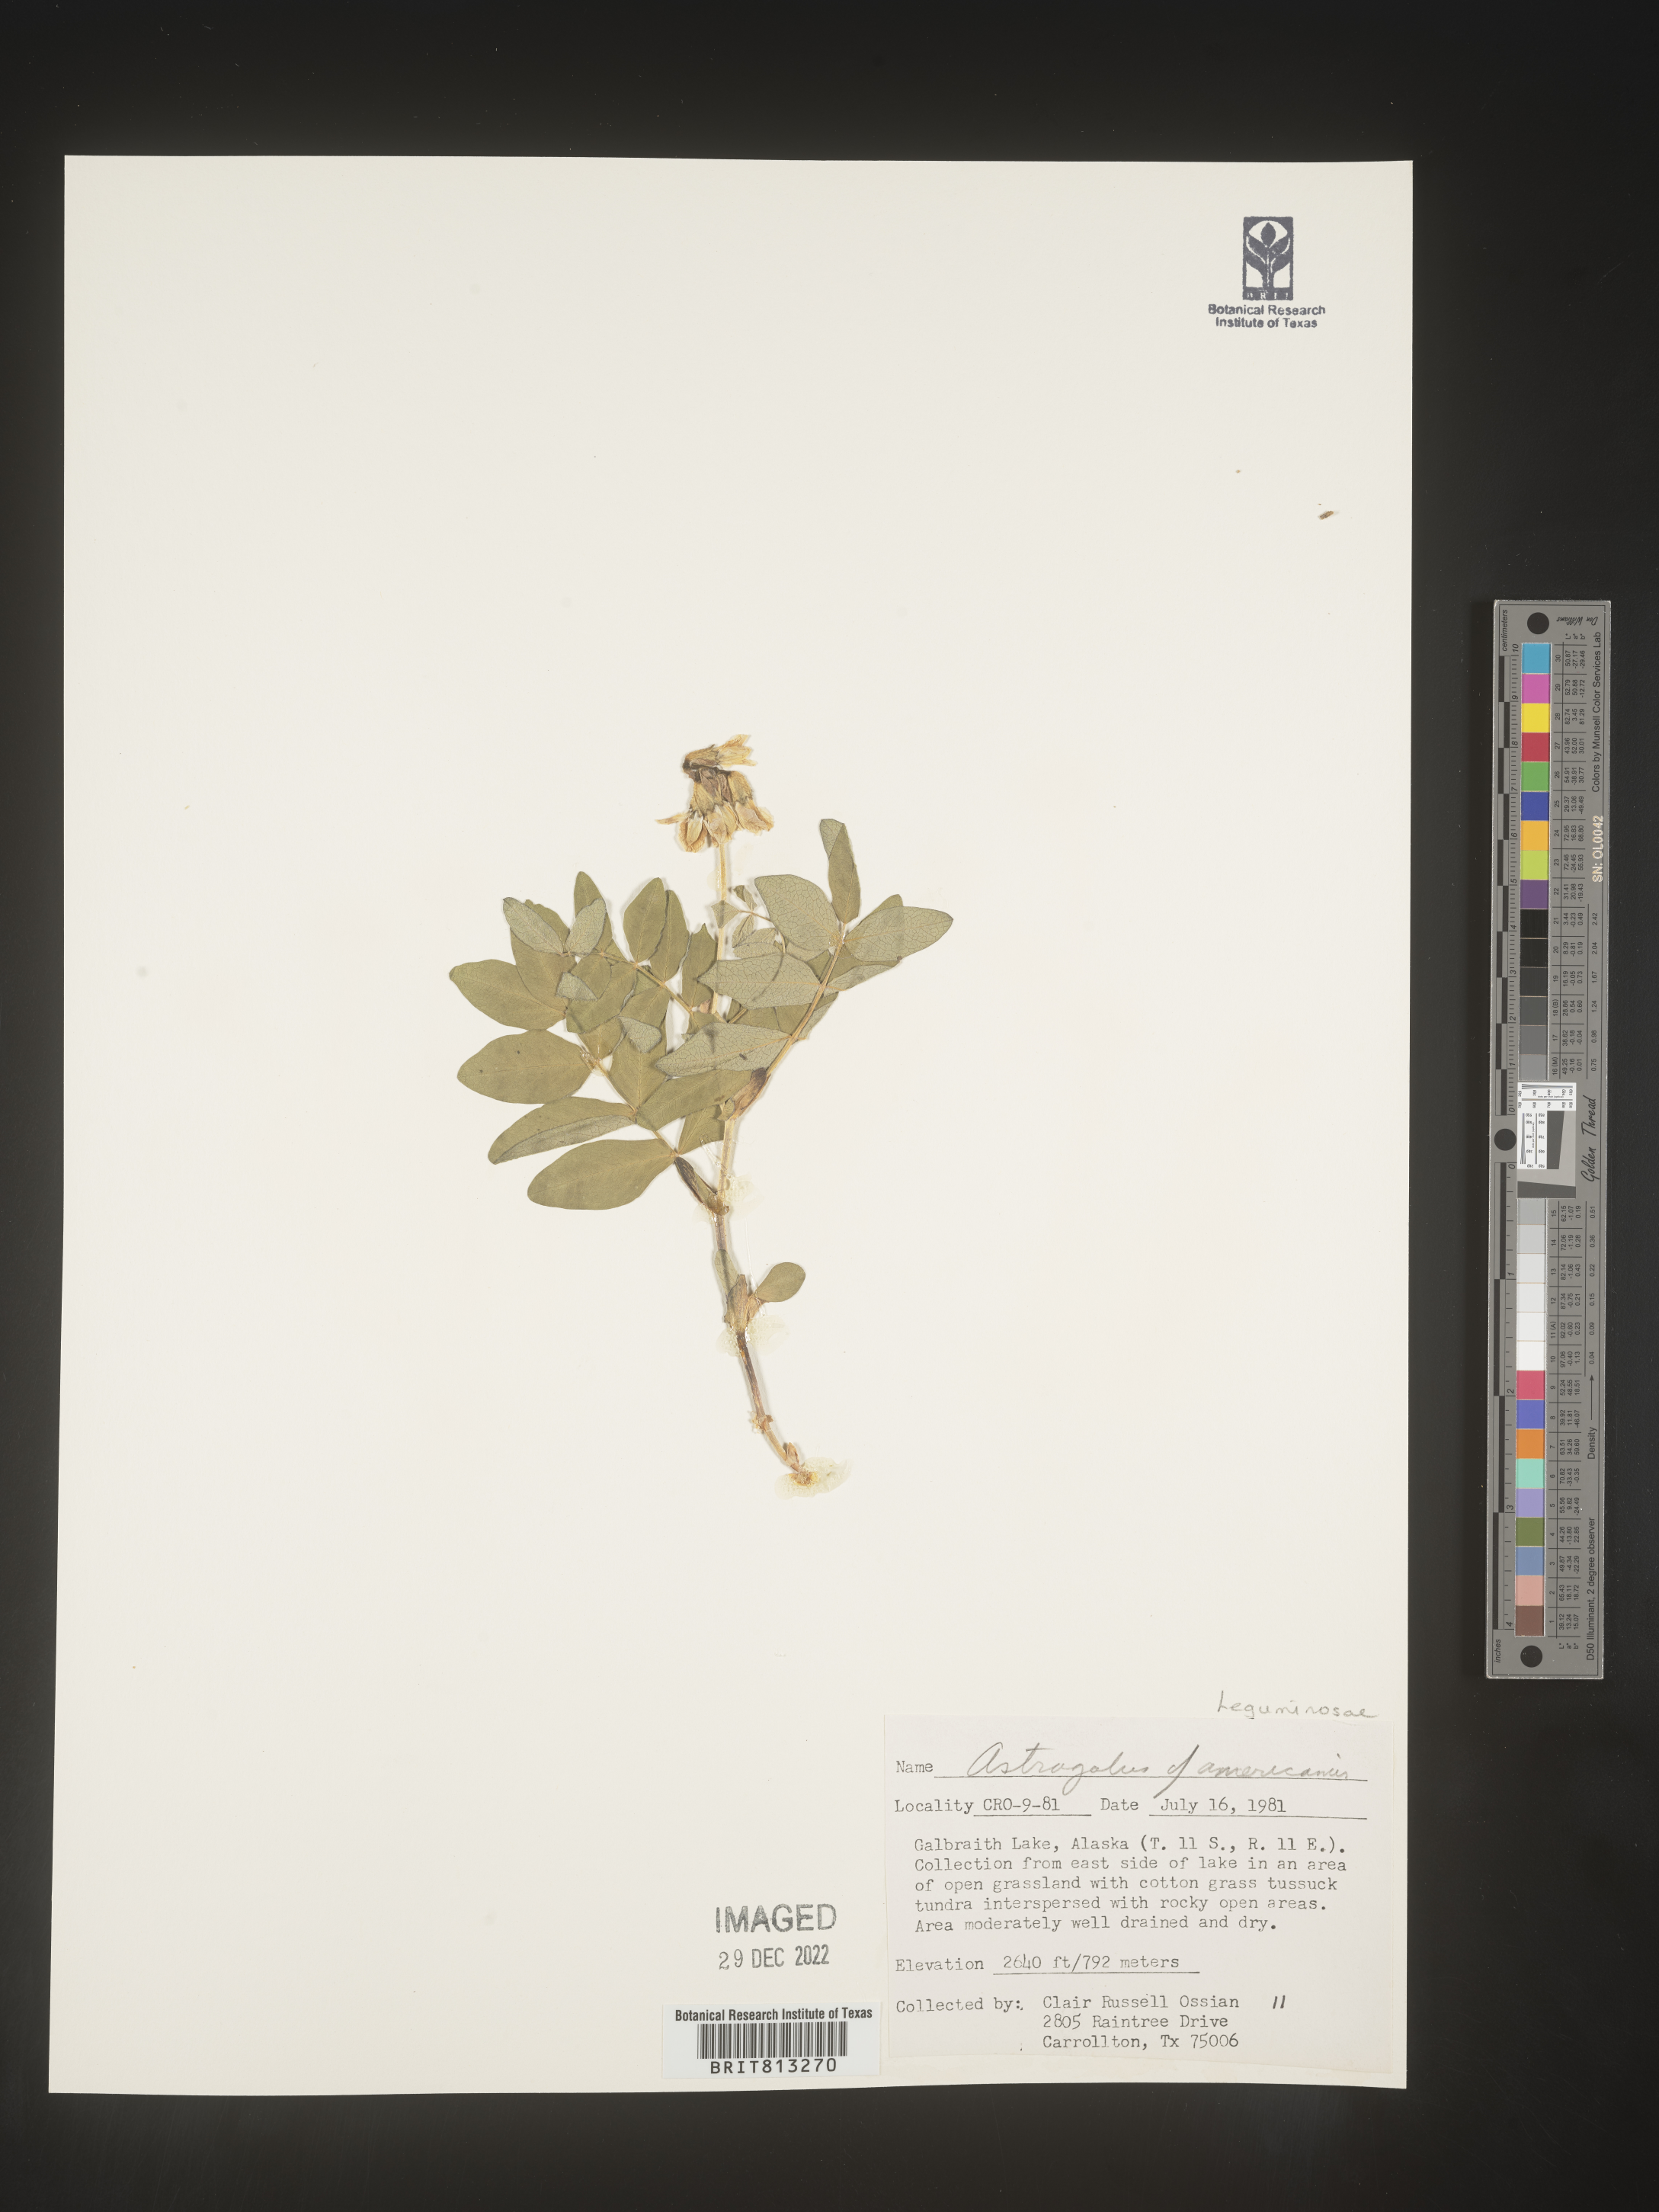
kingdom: Plantae
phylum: Tracheophyta
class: Magnoliopsida
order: Fabales
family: Fabaceae
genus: Astragalus
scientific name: Astragalus
